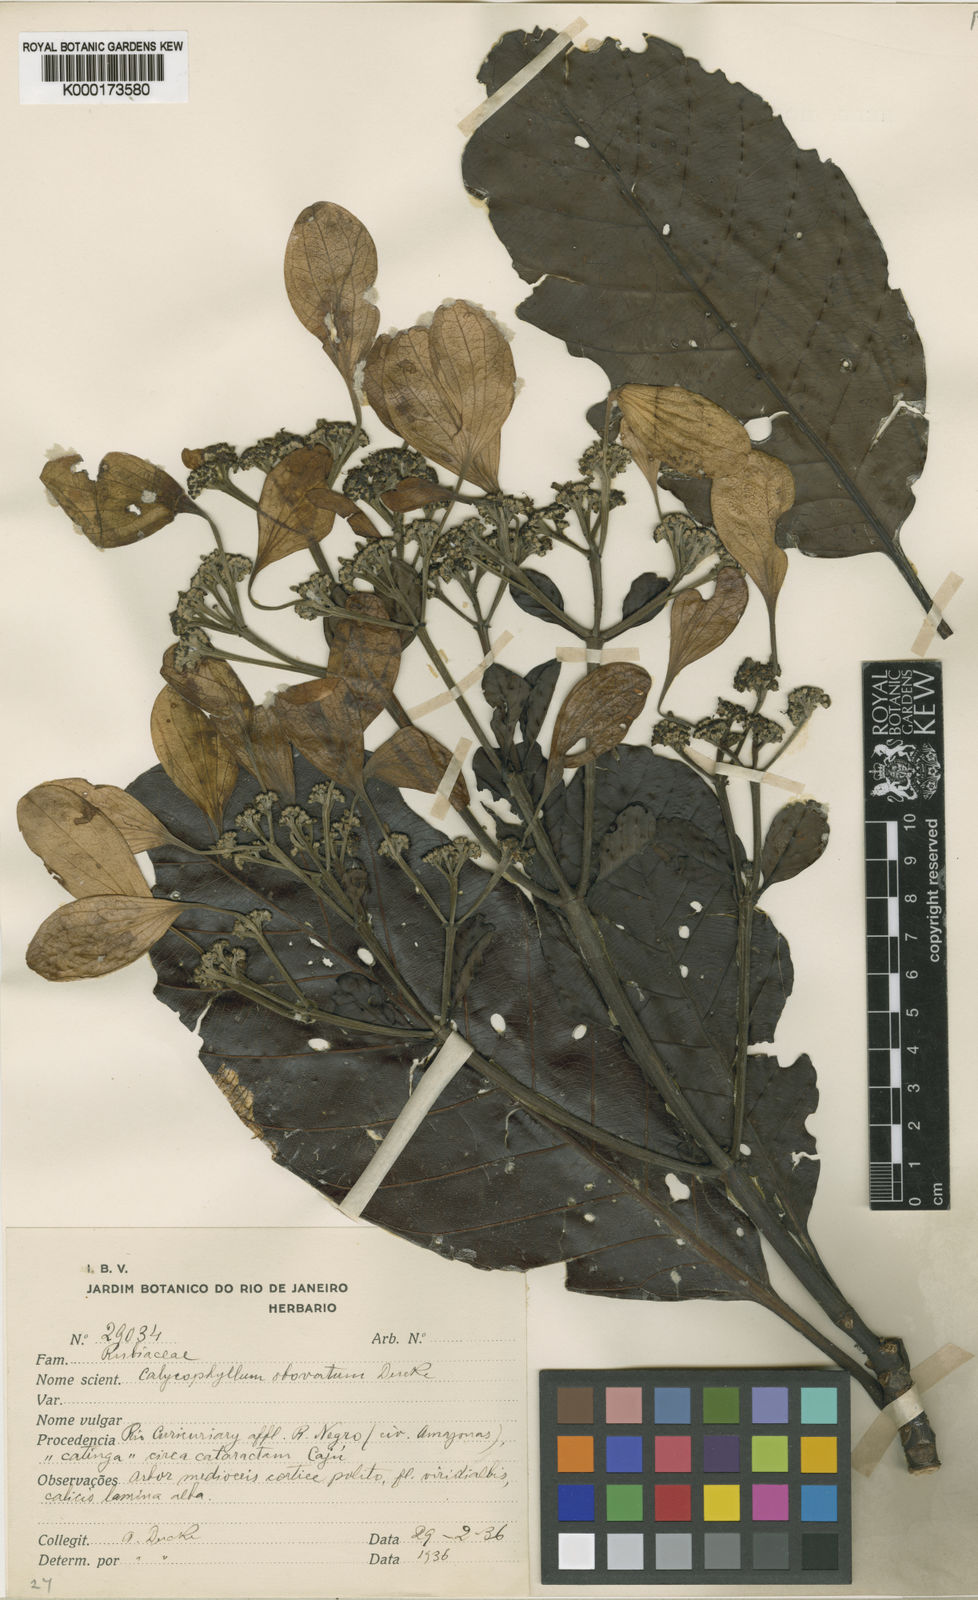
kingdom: Plantae
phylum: Tracheophyta
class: Magnoliopsida
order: Gentianales
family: Rubiaceae
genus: Calycophyllum
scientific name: Calycophyllum intonsum
